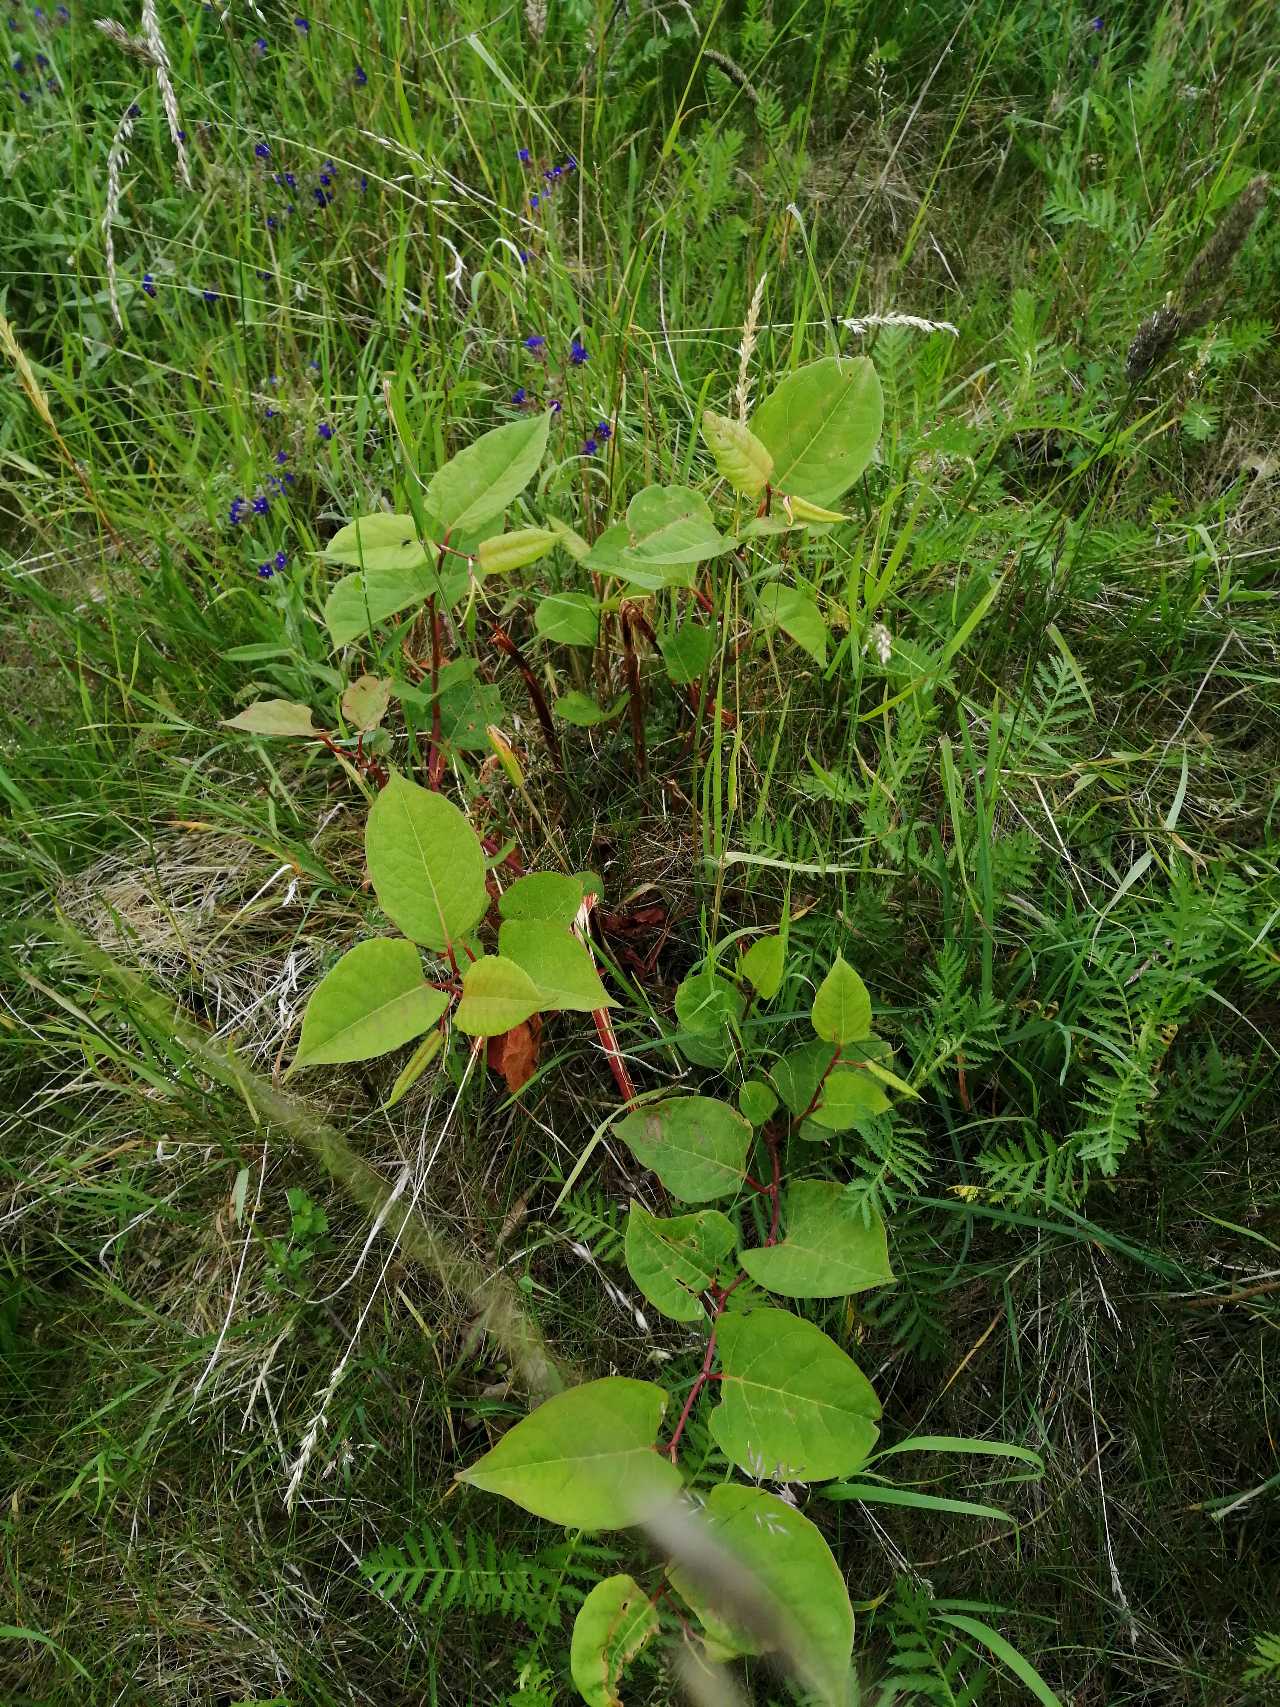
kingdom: Plantae
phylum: Tracheophyta
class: Magnoliopsida
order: Caryophyllales
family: Polygonaceae
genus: Reynoutria
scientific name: Reynoutria japonica
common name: Japan-pileurt
